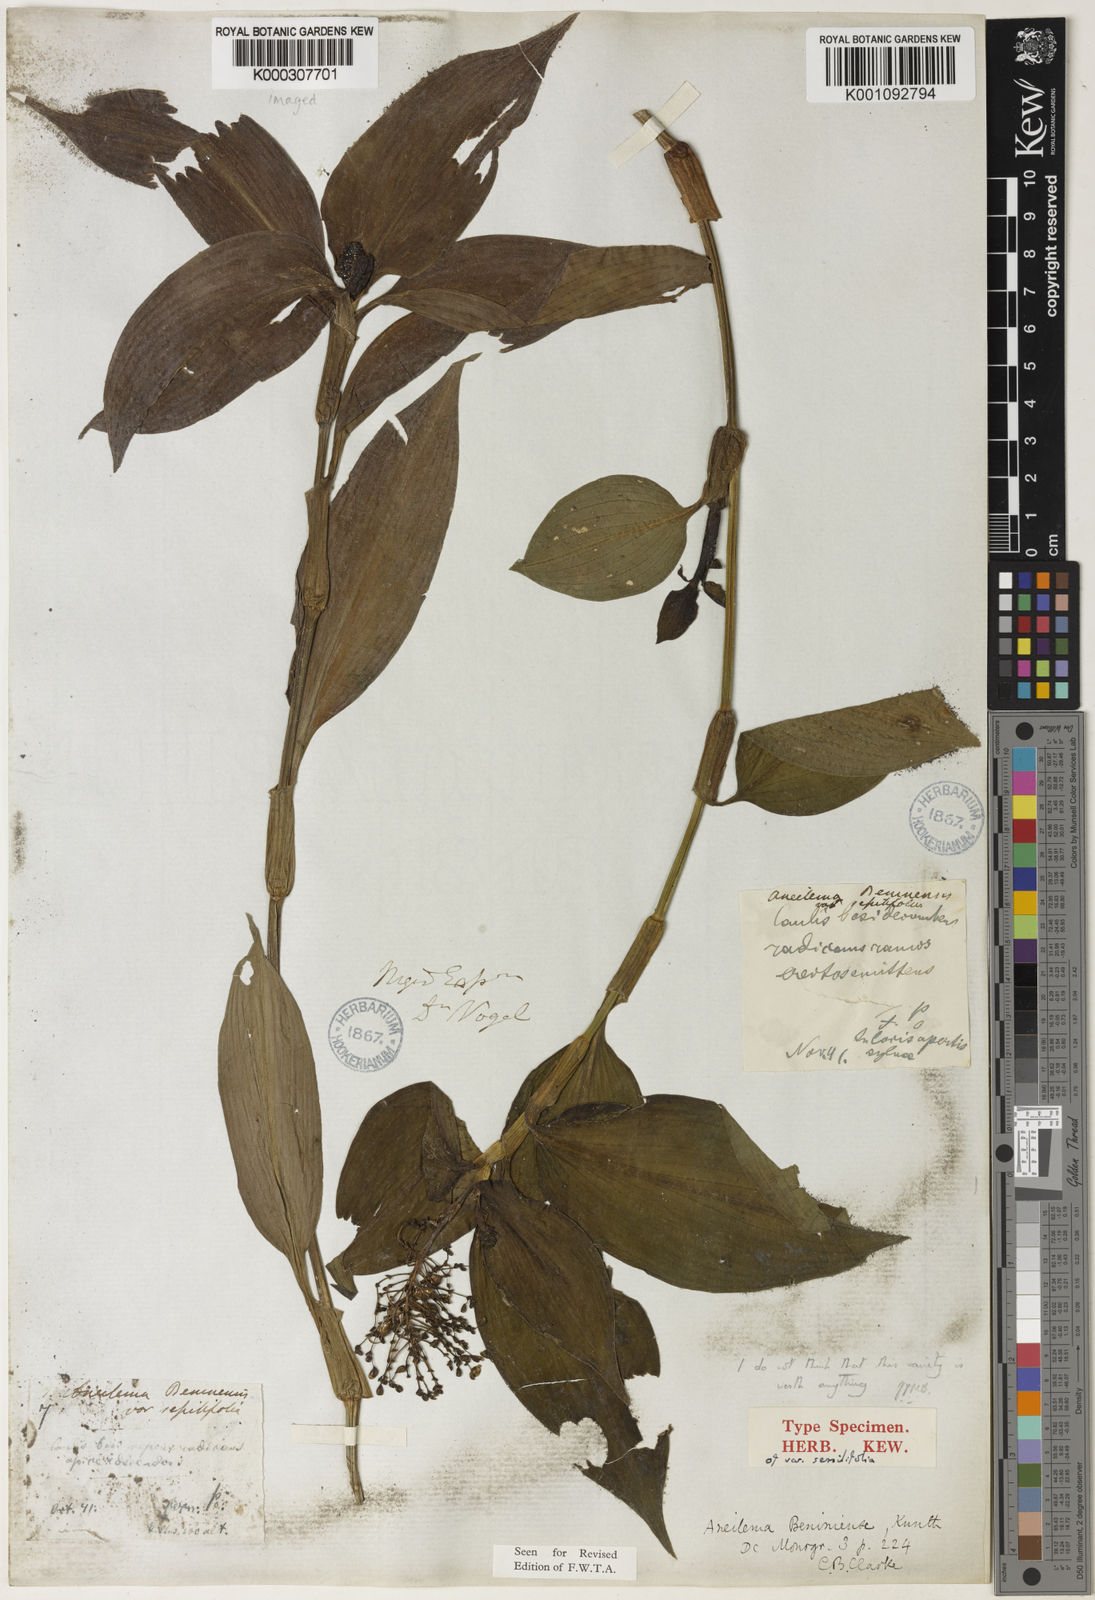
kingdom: Plantae
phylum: Tracheophyta
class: Liliopsida
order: Commelinales
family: Commelinaceae
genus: Aneilema
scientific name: Aneilema beniniense
